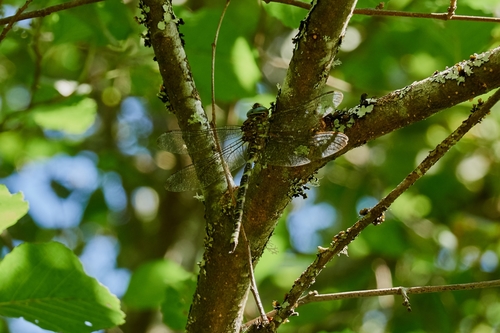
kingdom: Animalia
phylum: Arthropoda
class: Insecta
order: Odonata
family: Aeshnidae
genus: Boyeria
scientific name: Boyeria irene
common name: Western spectre
